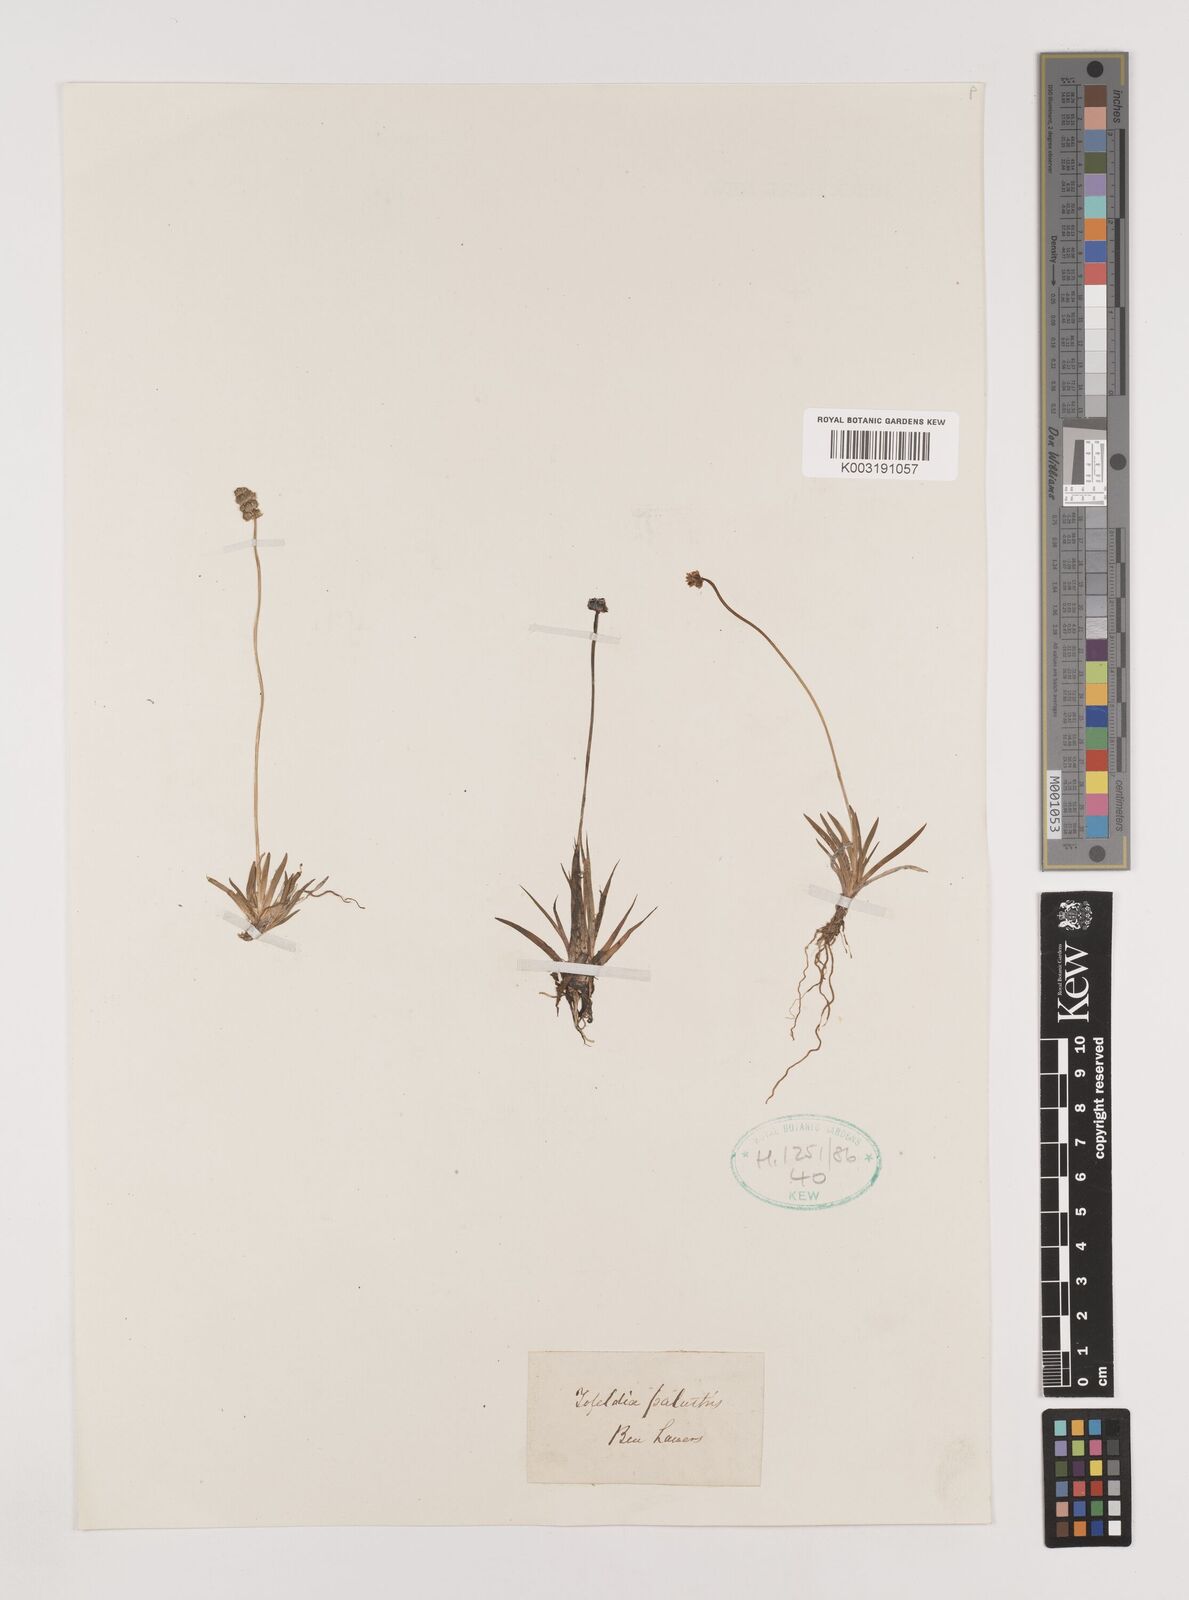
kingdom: Plantae
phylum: Tracheophyta
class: Liliopsida
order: Alismatales
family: Tofieldiaceae
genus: Tofieldia
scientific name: Tofieldia pusilla
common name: Scottish false asphodel
